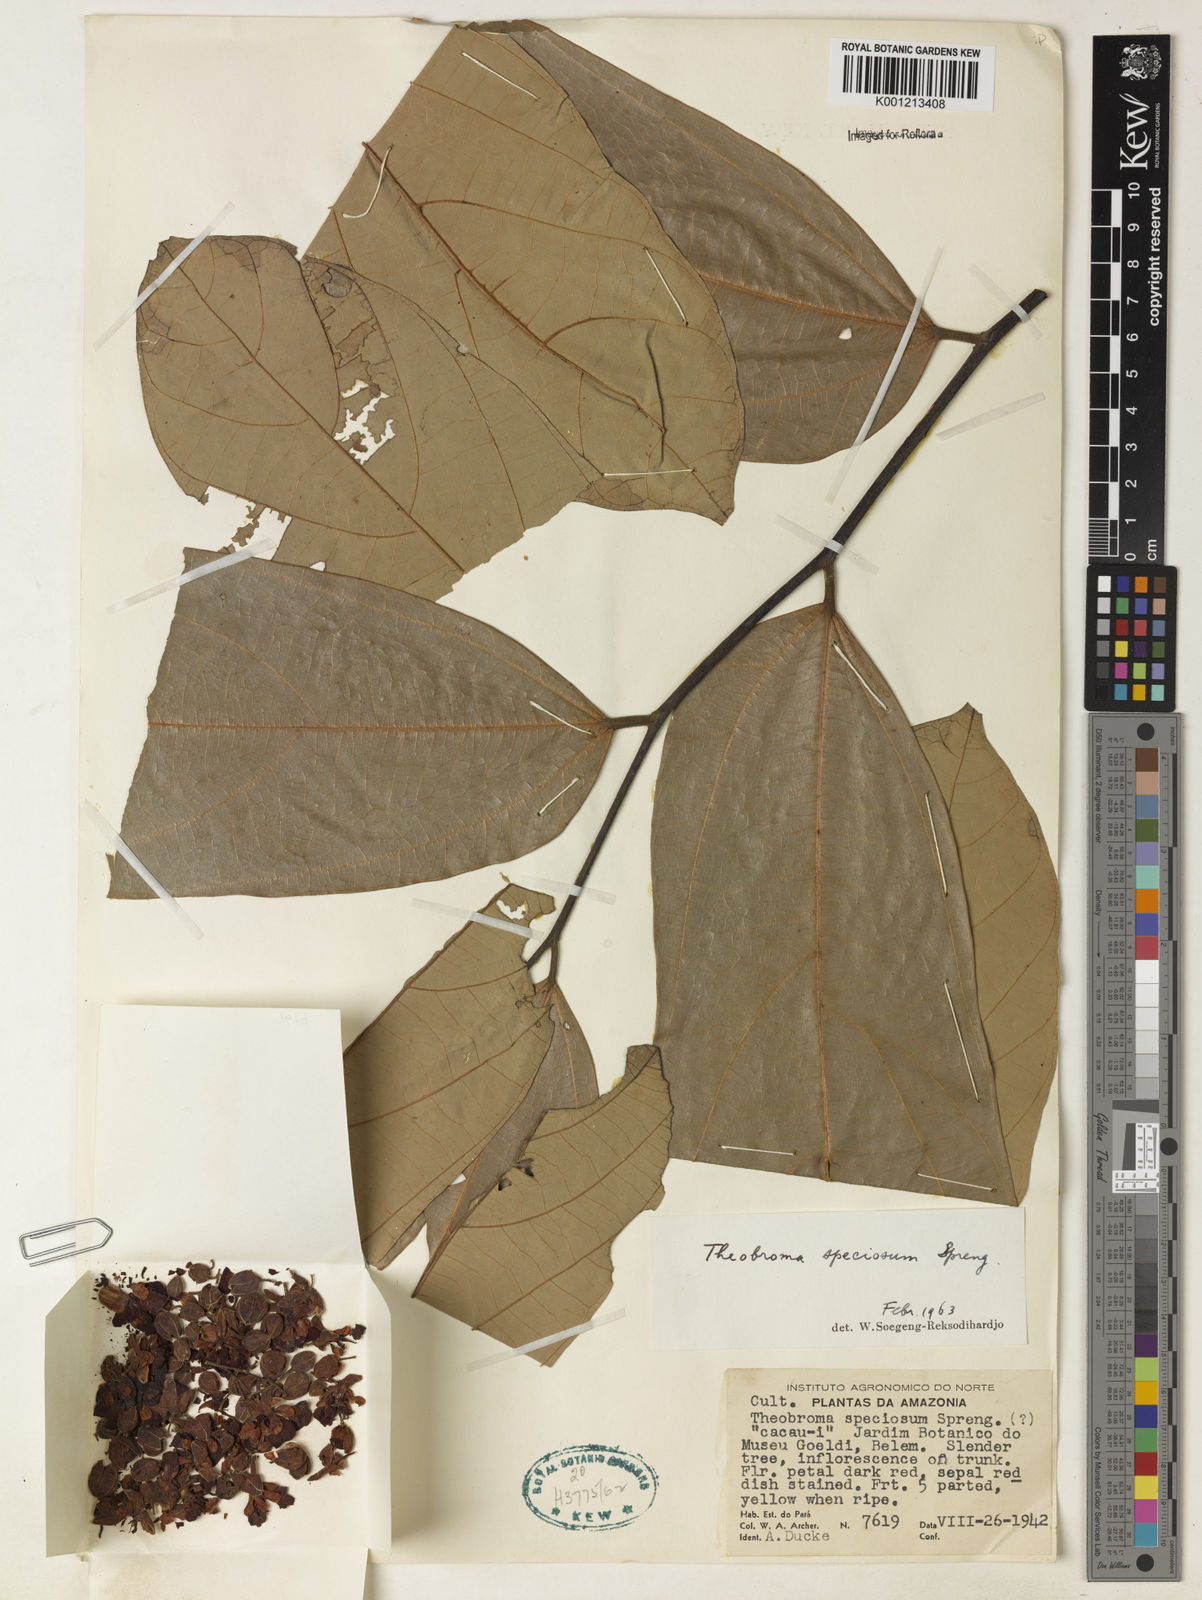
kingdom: Plantae
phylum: Tracheophyta
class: Magnoliopsida
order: Malvales
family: Malvaceae
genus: Theobroma
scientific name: Theobroma speciosum
